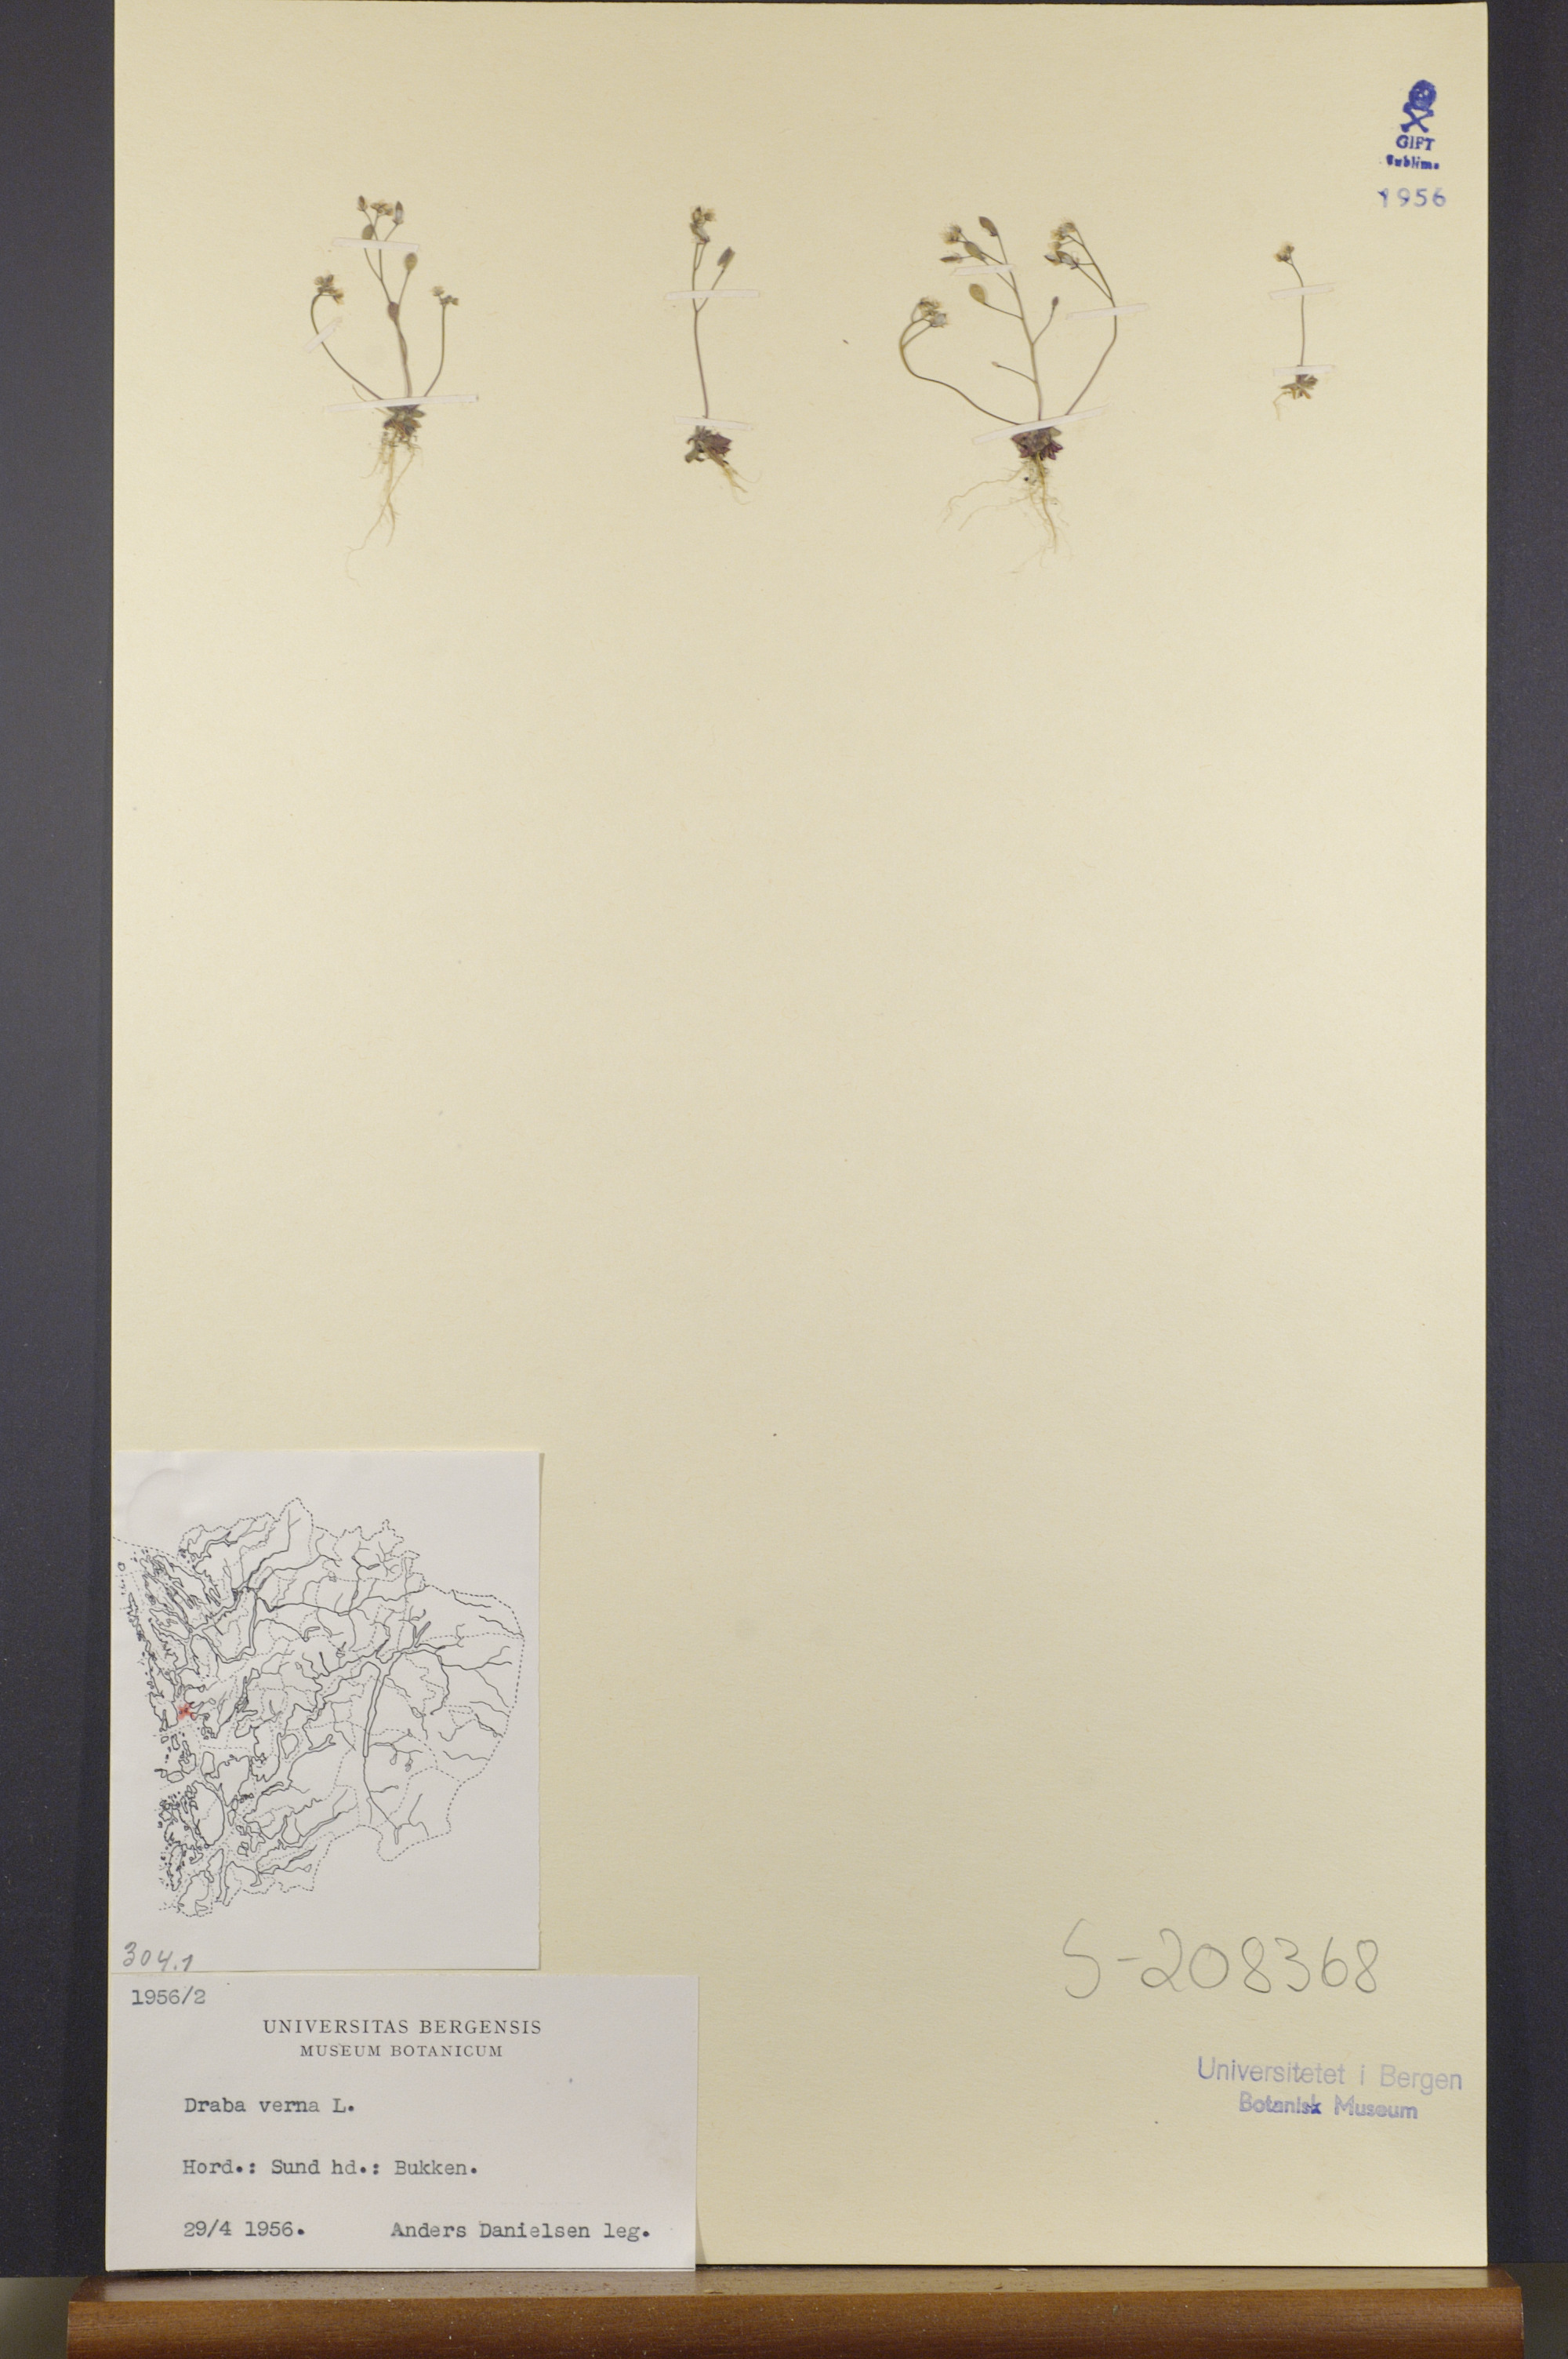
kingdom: Plantae
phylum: Tracheophyta
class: Magnoliopsida
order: Brassicales
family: Brassicaceae
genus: Draba
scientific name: Draba verna
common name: Spring draba
